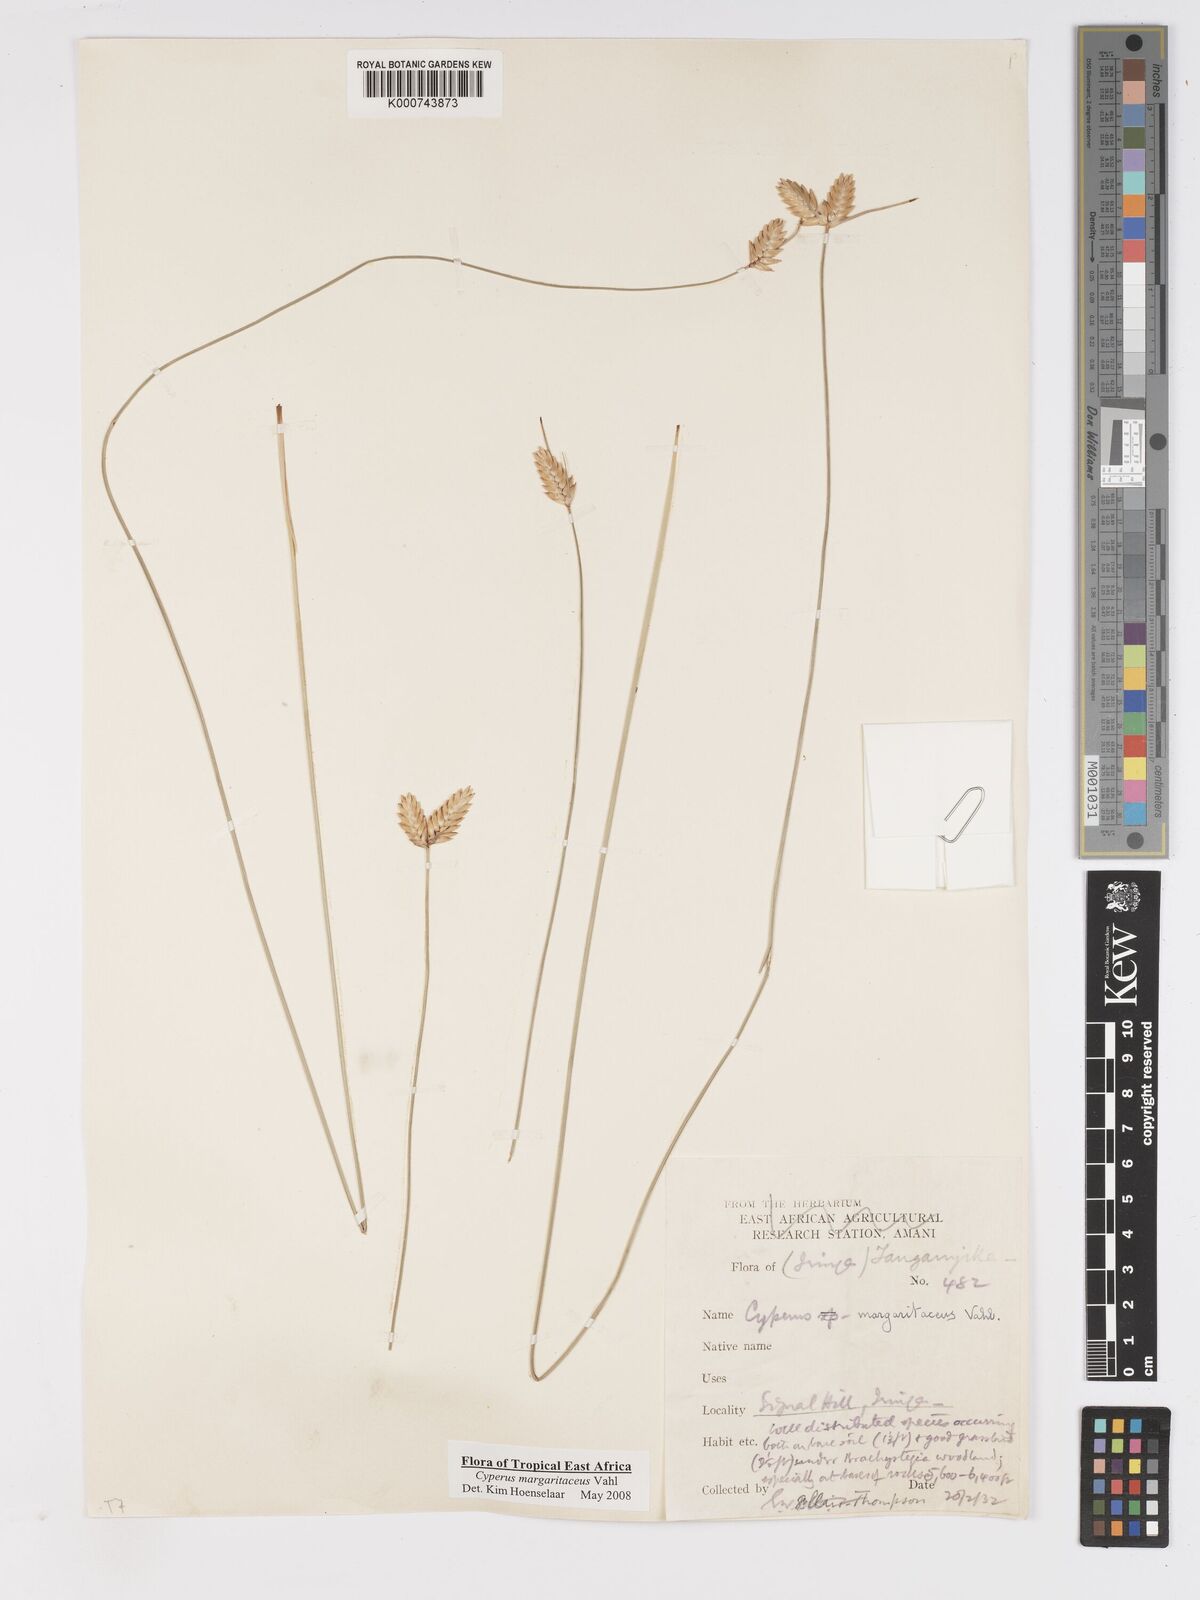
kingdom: Plantae
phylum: Tracheophyta
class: Liliopsida
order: Poales
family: Cyperaceae
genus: Cyperus
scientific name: Cyperus margaritaceus
